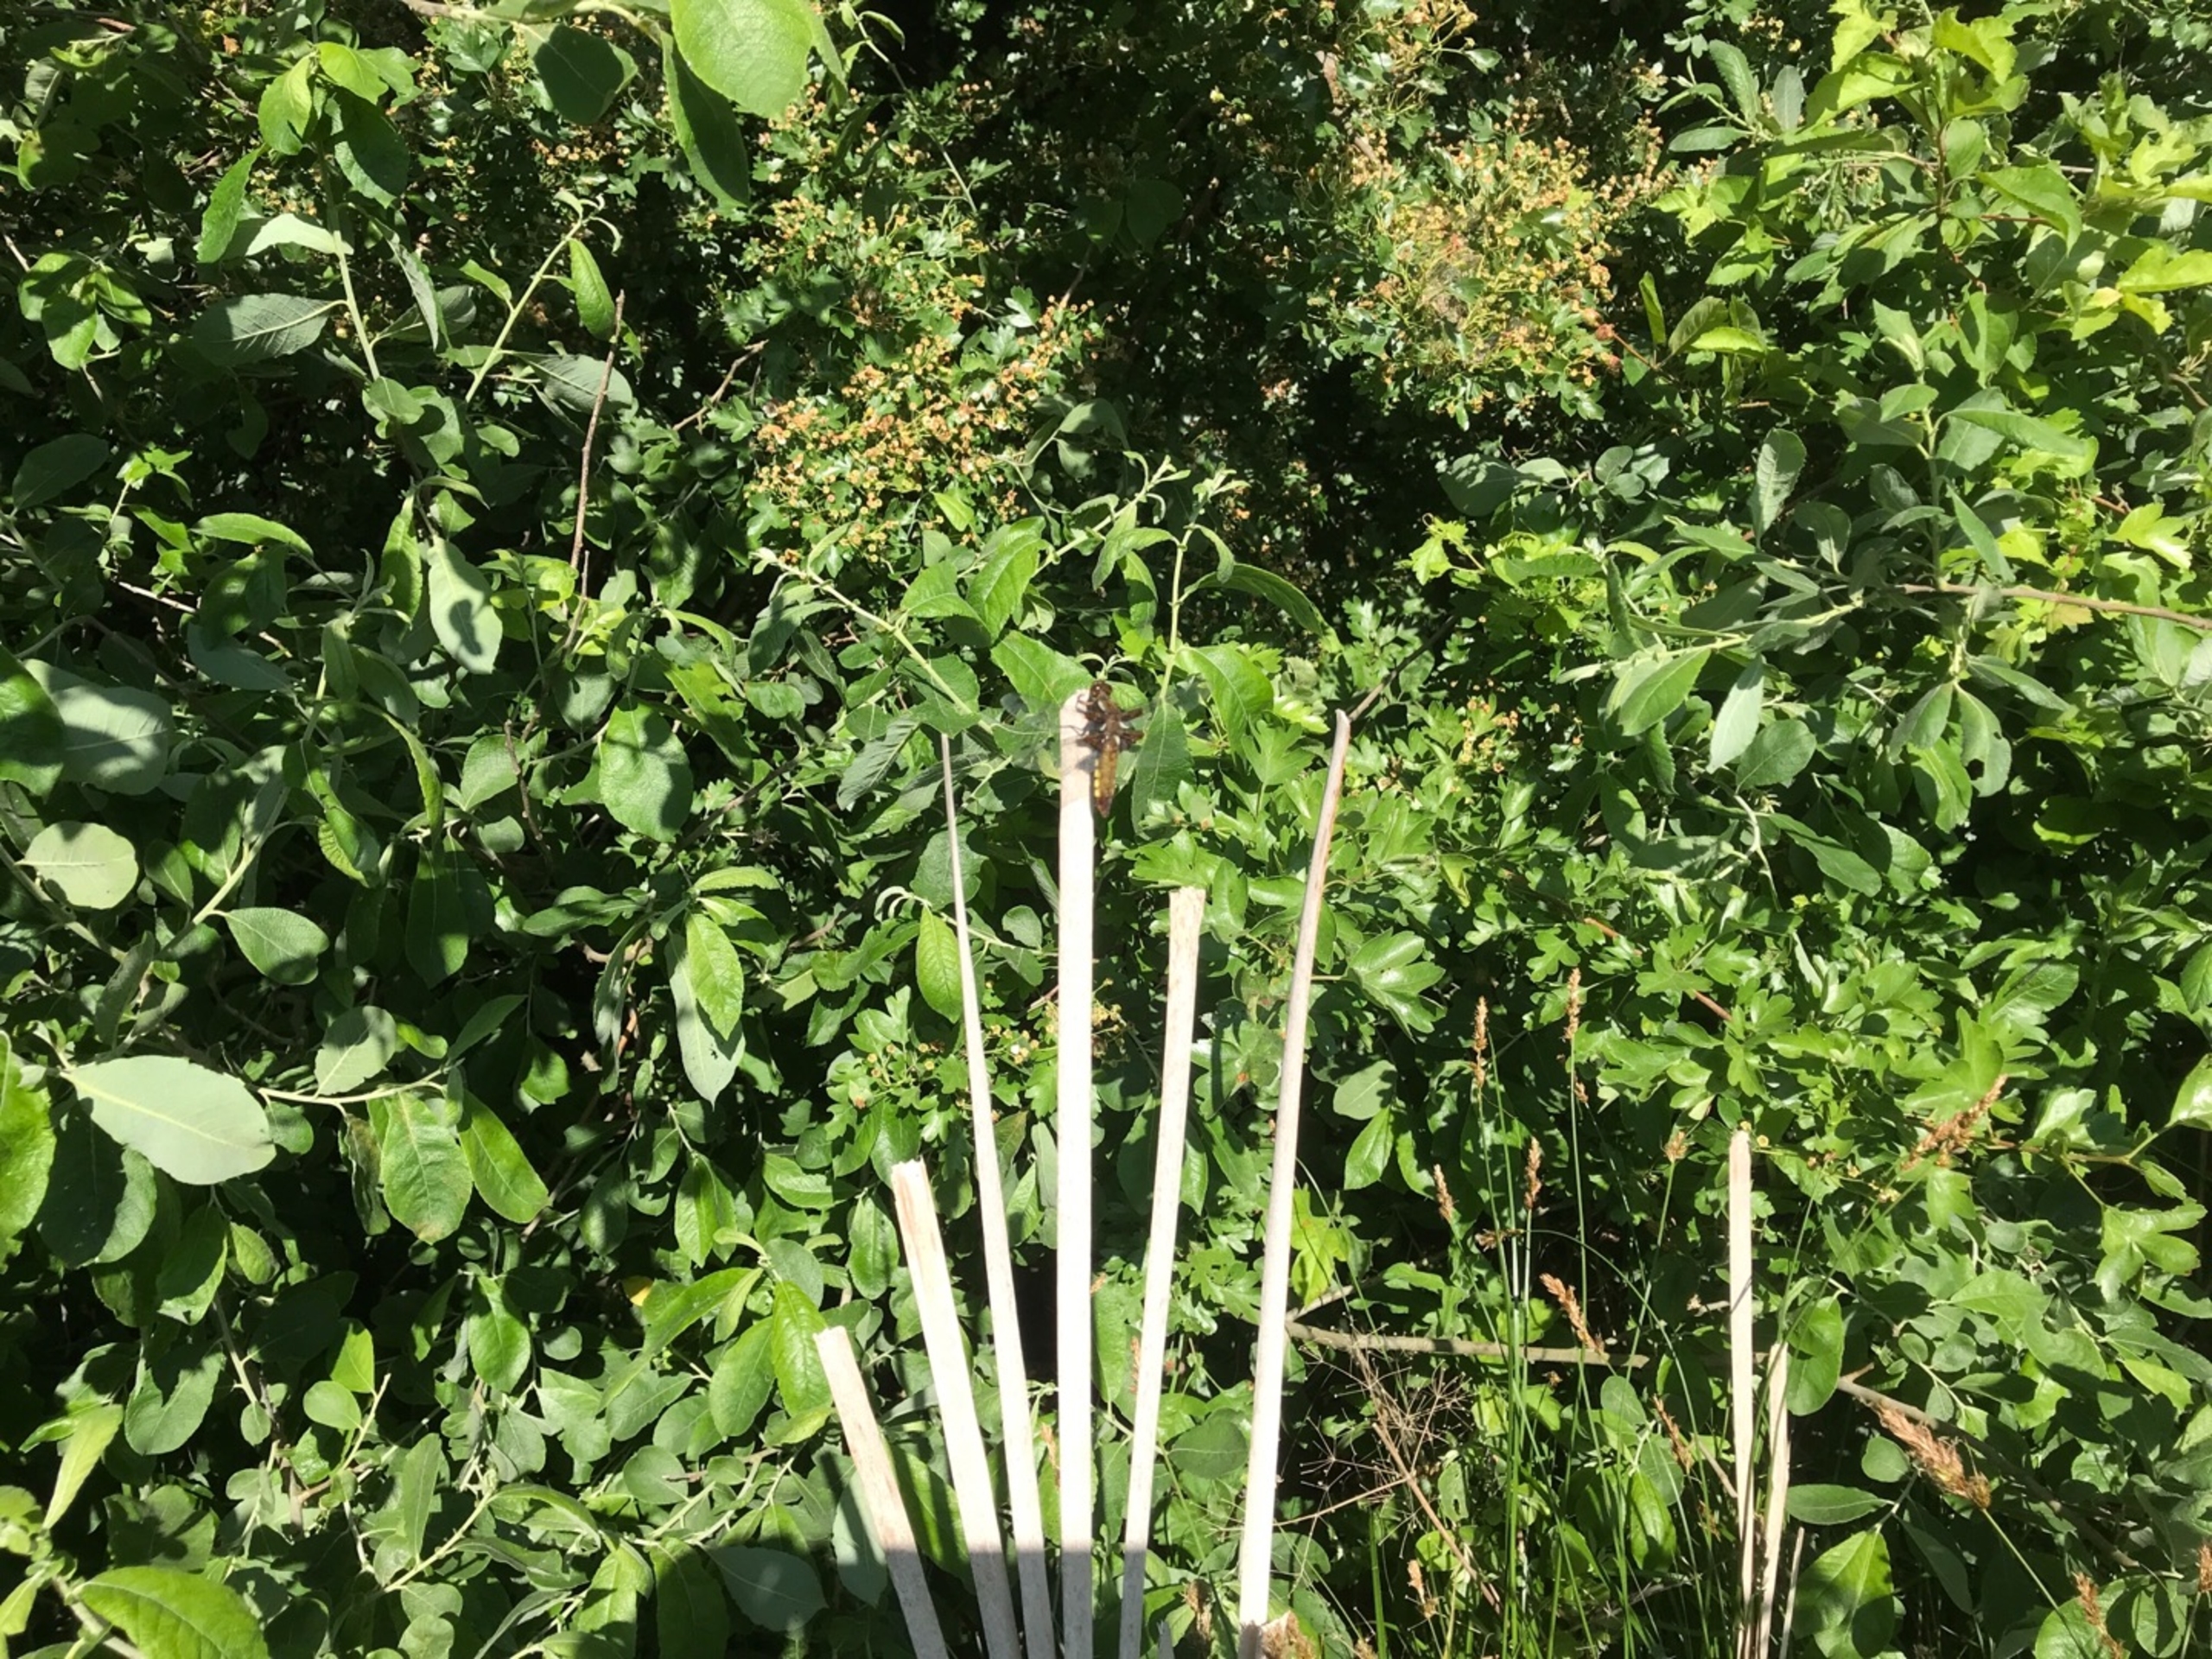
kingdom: Animalia
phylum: Arthropoda
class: Insecta
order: Odonata
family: Libellulidae
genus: Libellula
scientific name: Libellula depressa
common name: Blå libel
